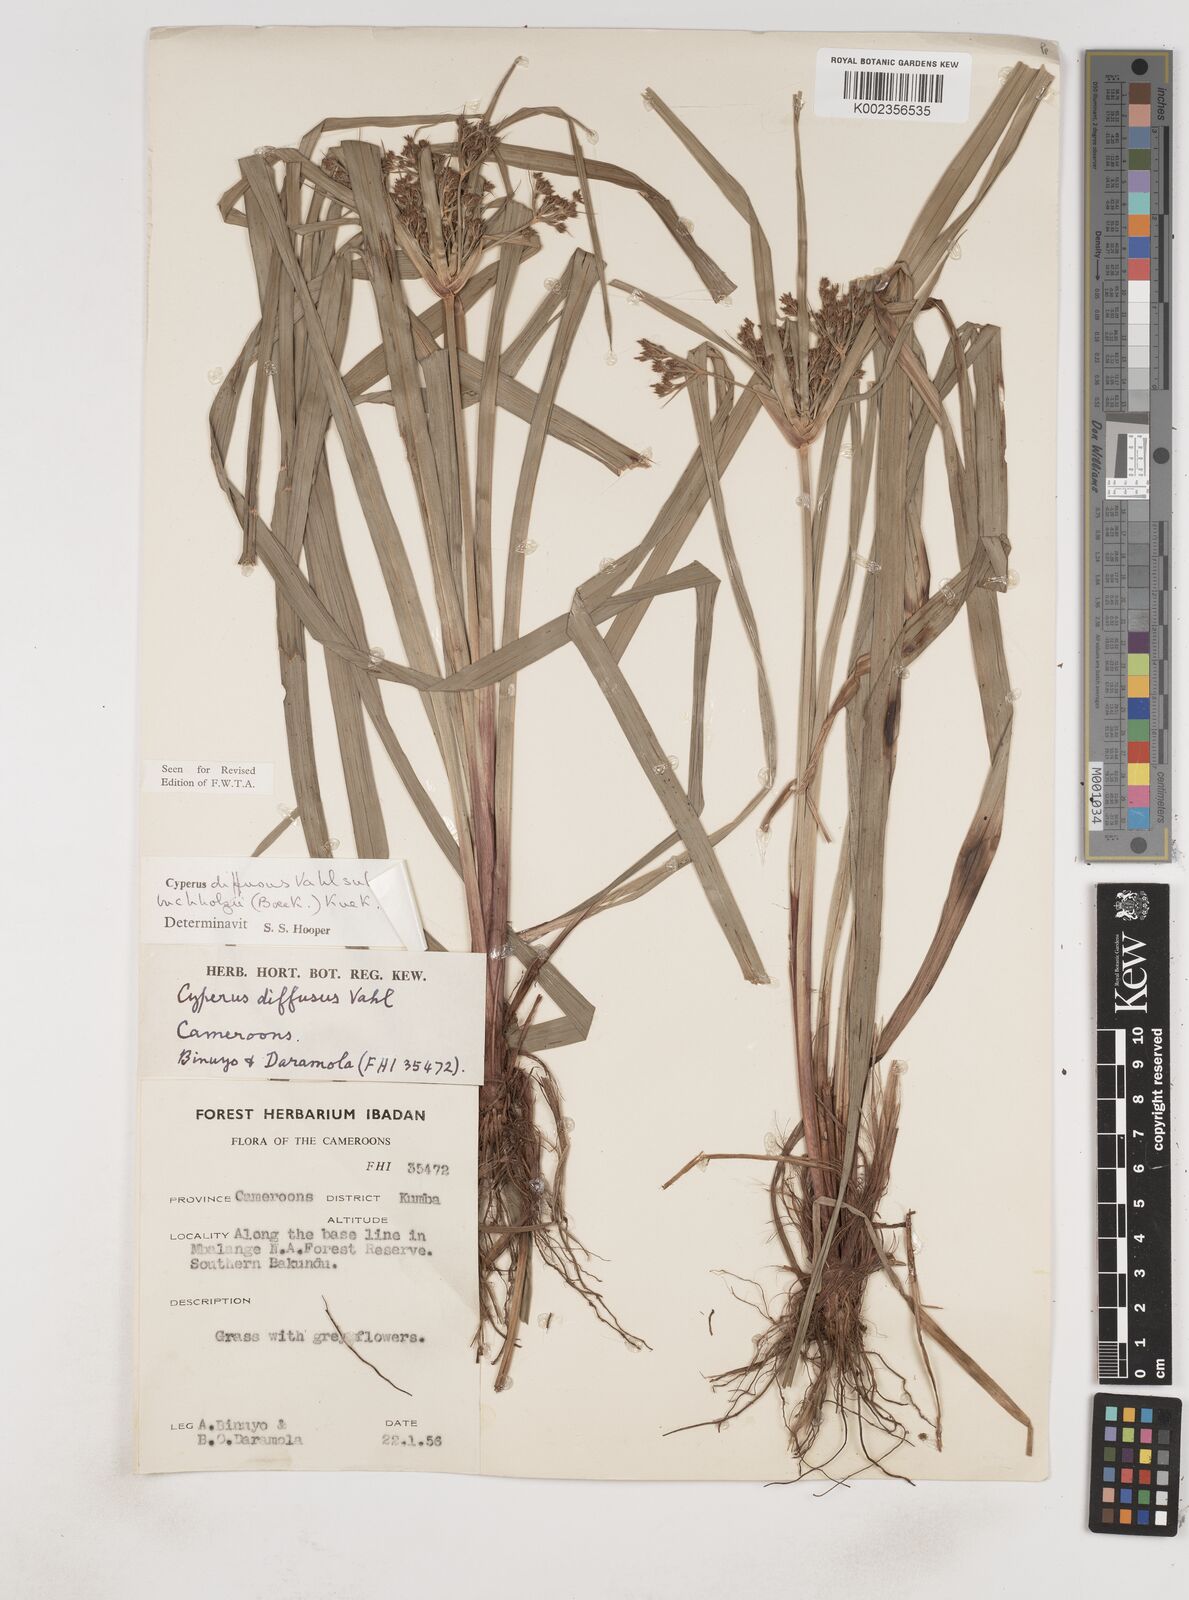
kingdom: Plantae
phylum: Tracheophyta
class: Liliopsida
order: Poales
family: Cyperaceae
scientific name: Cyperaceae
